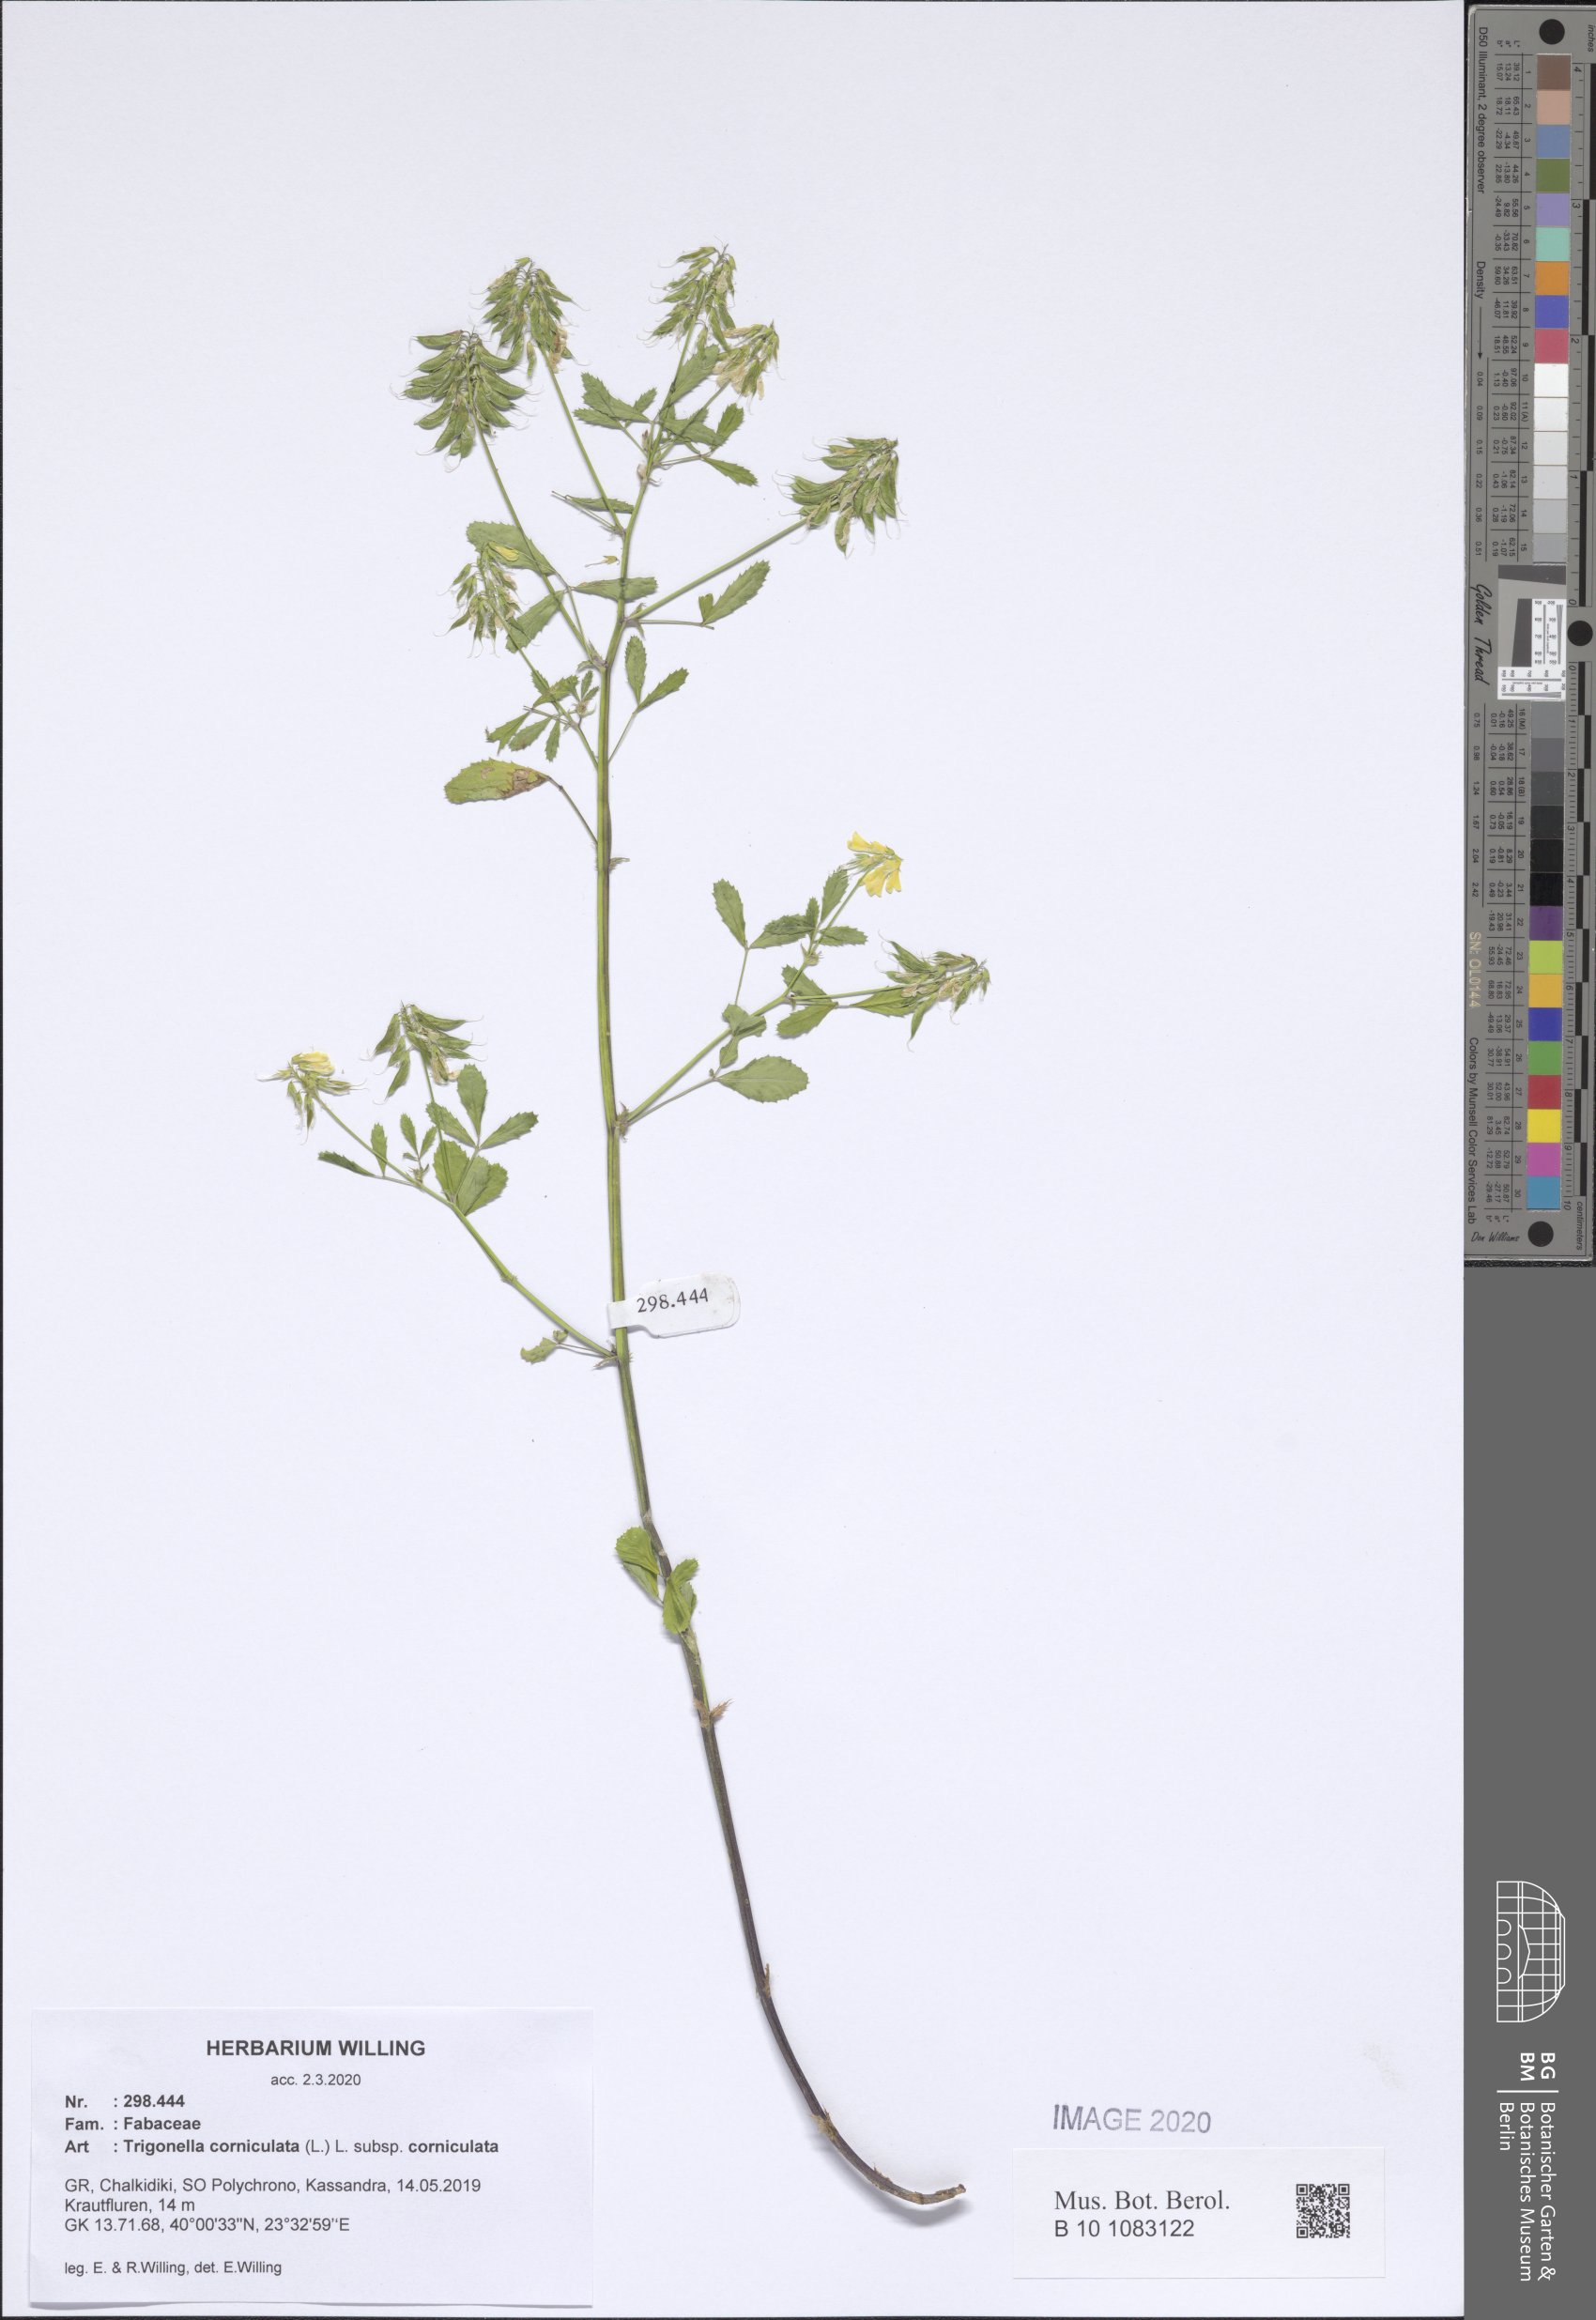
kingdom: Plantae
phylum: Tracheophyta
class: Magnoliopsida
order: Fabales
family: Fabaceae
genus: Trigonella
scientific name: Trigonella corniculata
